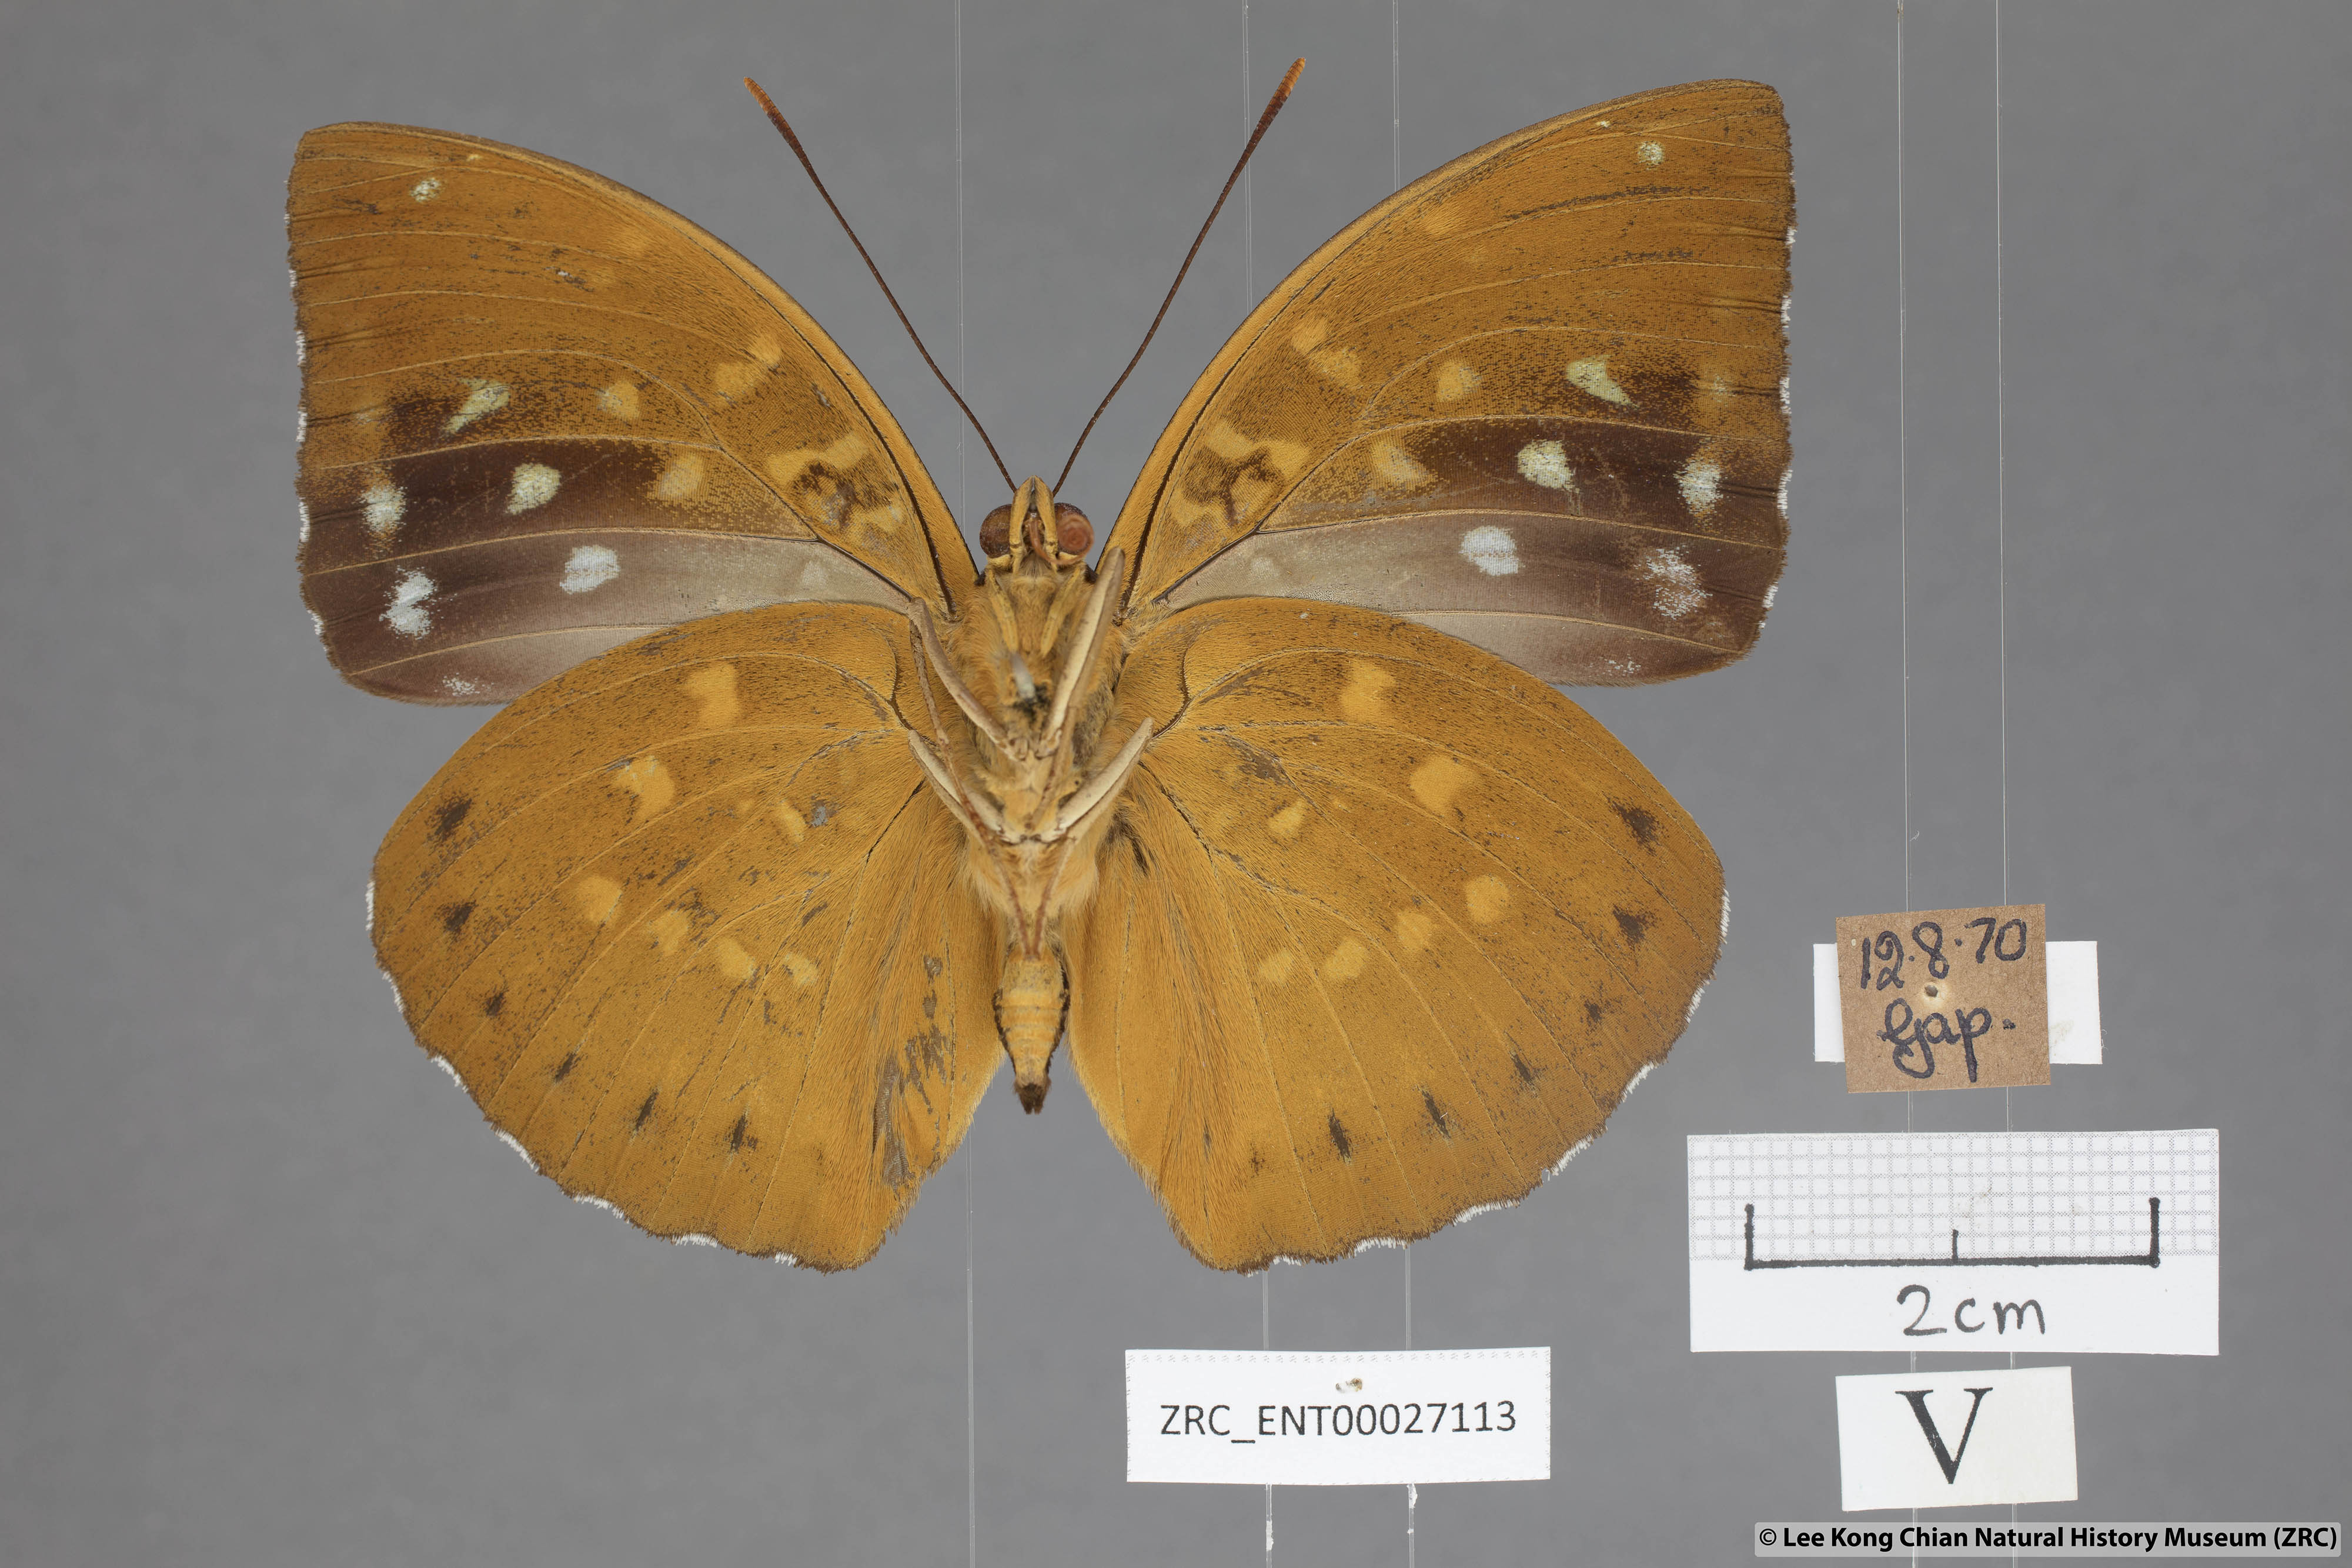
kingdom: Animalia
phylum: Arthropoda
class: Insecta
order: Lepidoptera
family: Nymphalidae
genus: Lexias
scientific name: Lexias pardalis
